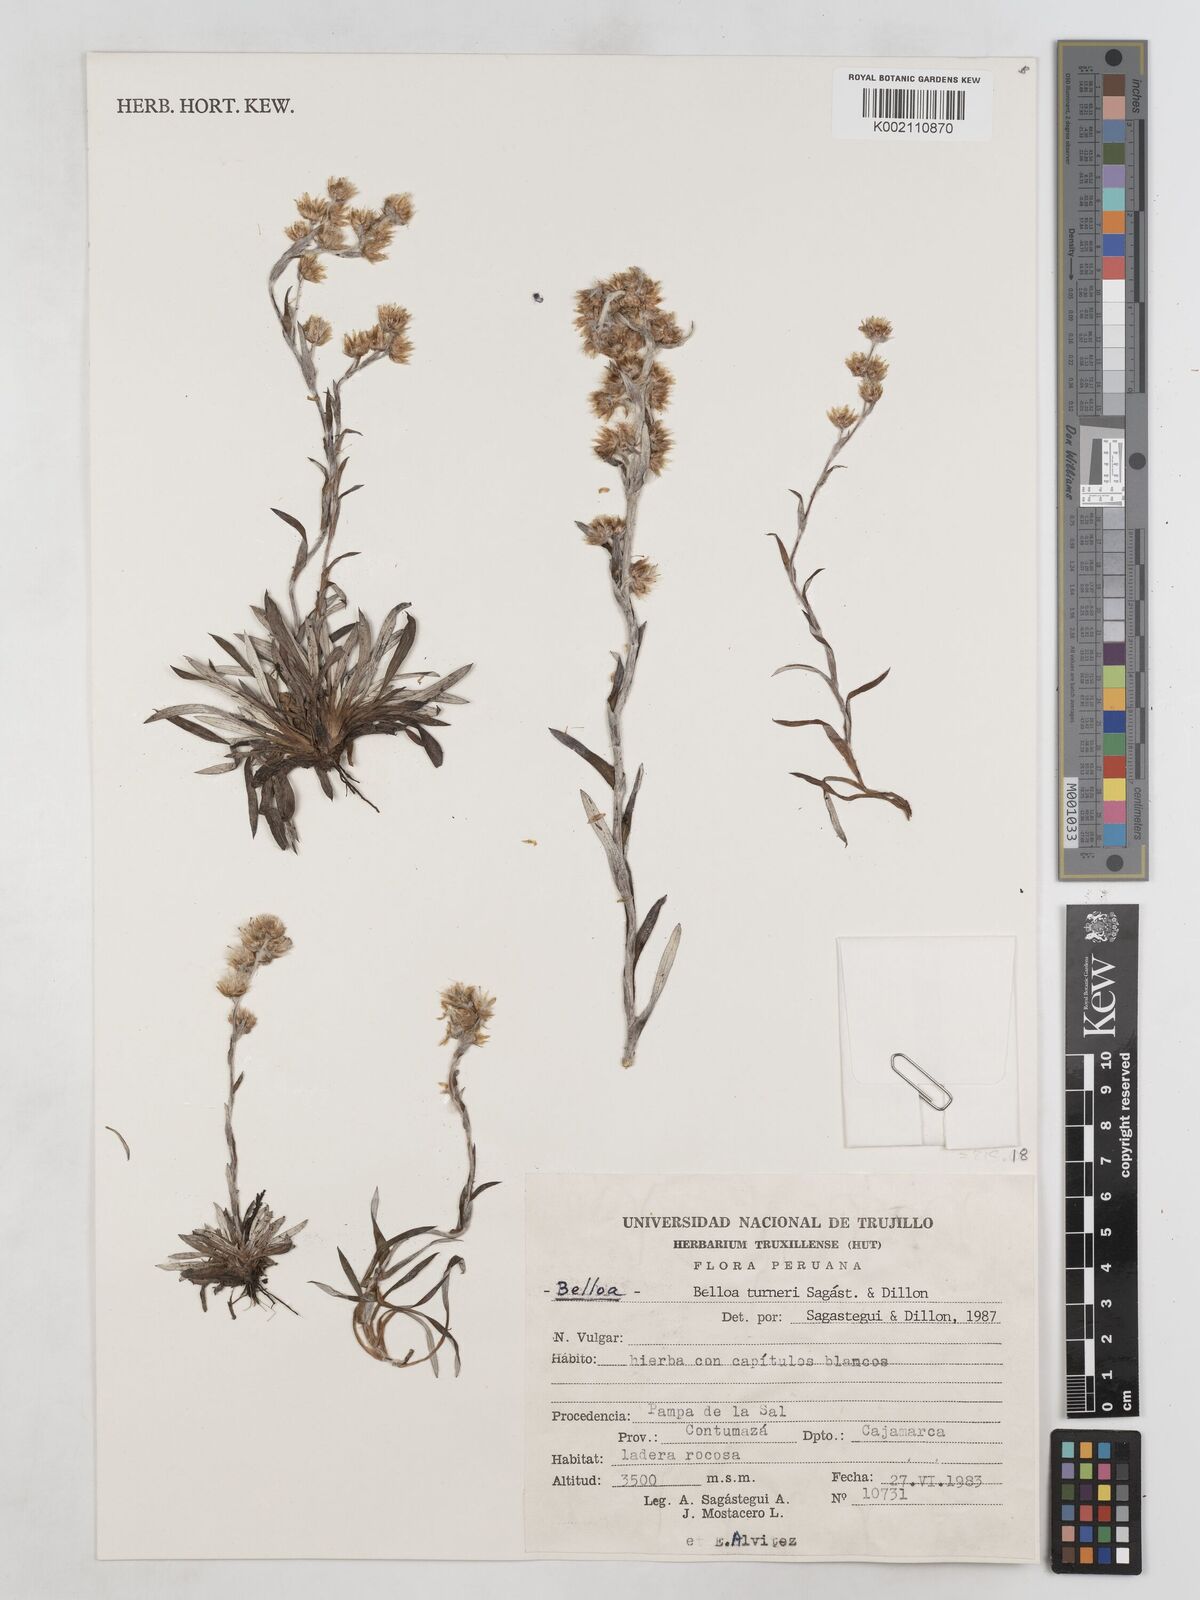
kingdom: Plantae
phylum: Tracheophyta
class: Magnoliopsida
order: Asterales
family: Asteraceae
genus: Mniodes
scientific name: Mniodes turneri
